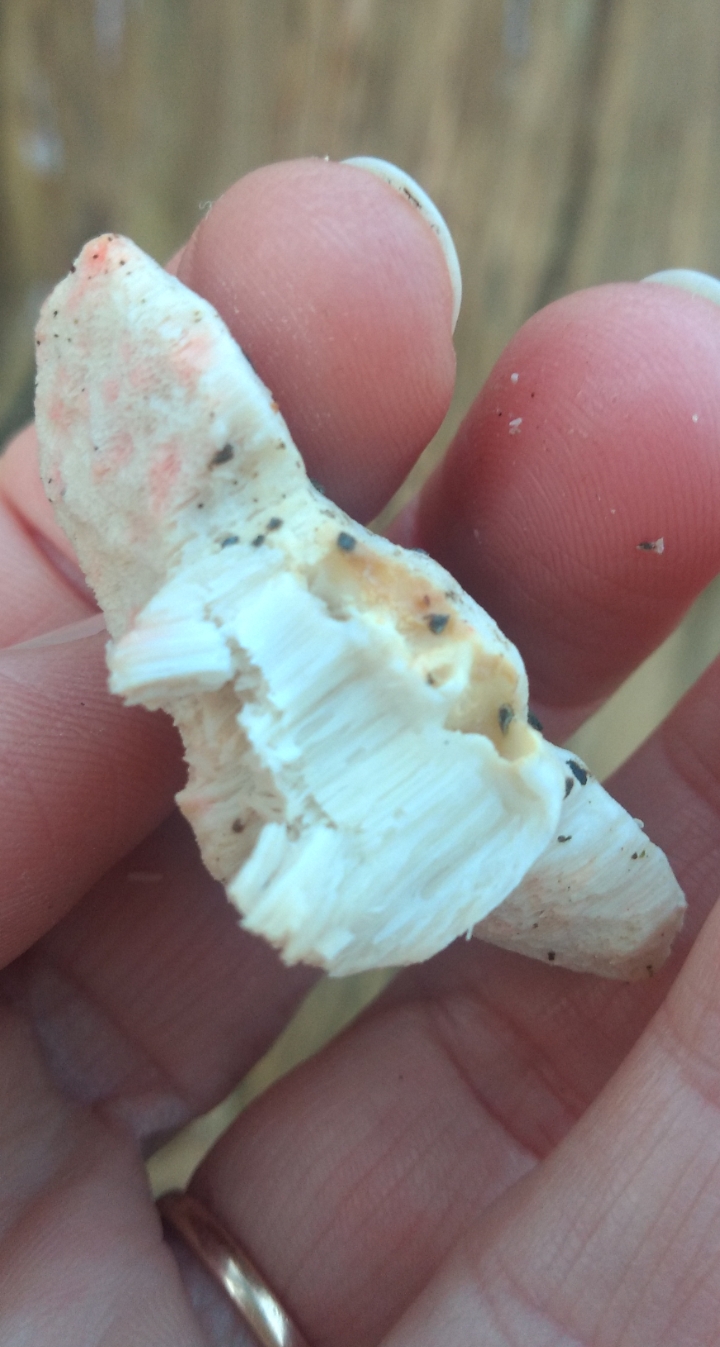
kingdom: Fungi
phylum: Basidiomycota
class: Agaricomycetes
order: Polyporales
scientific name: Polyporales
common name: poresvampordenen
